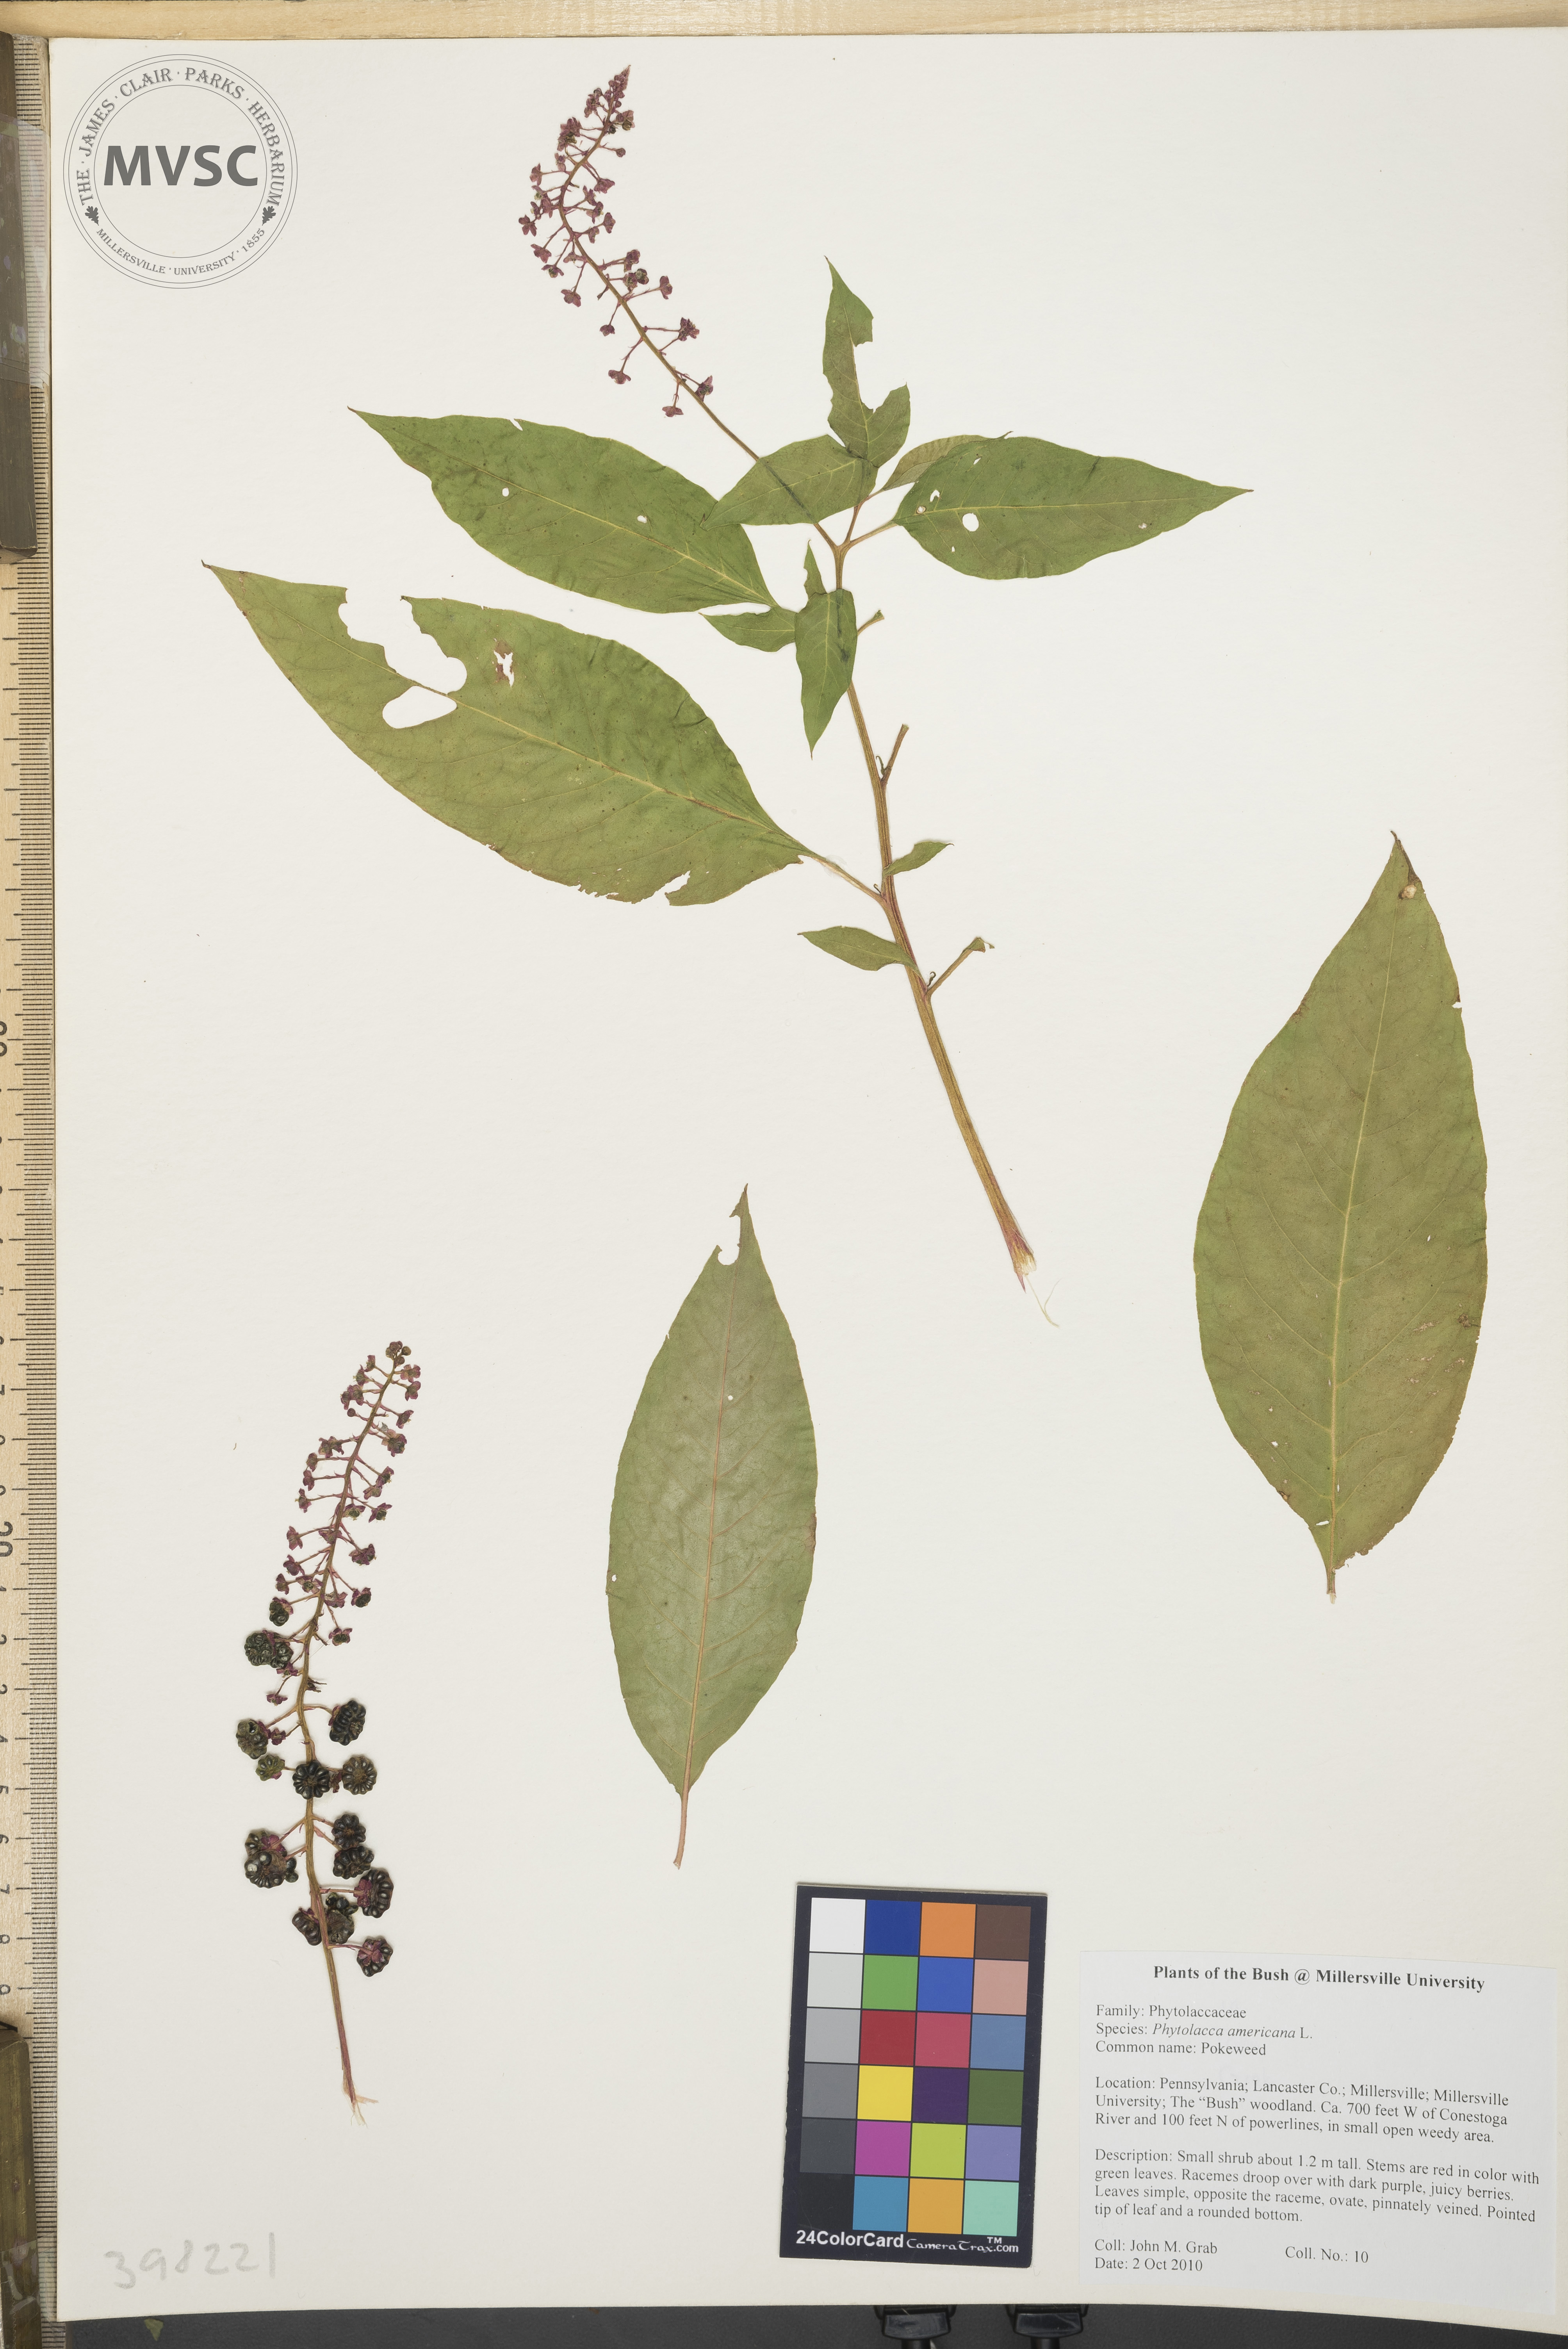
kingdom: Plantae
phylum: Tracheophyta
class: Magnoliopsida
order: Caryophyllales
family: Phytolaccaceae
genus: Phytolacca
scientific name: Phytolacca americana
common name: Pokeweed
